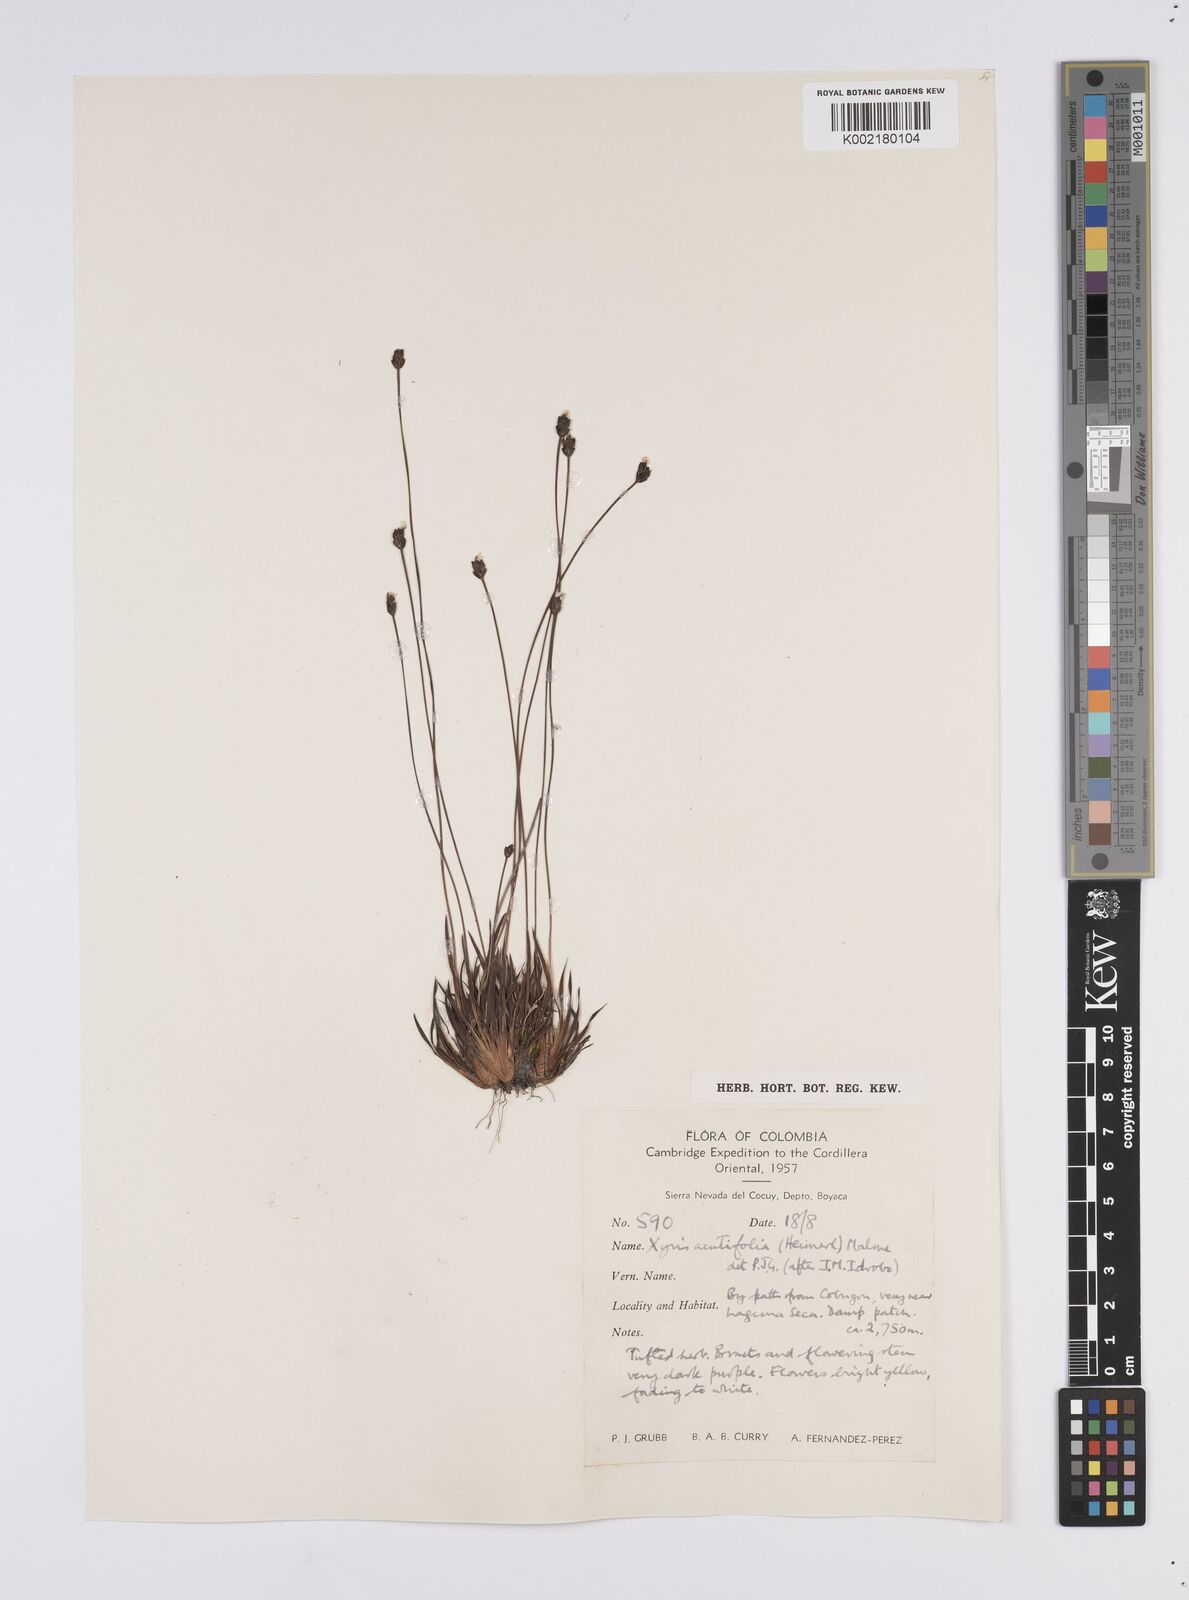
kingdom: Plantae
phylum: Tracheophyta
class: Liliopsida
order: Poales
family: Xyridaceae
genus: Xyris
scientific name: Xyris subulata
